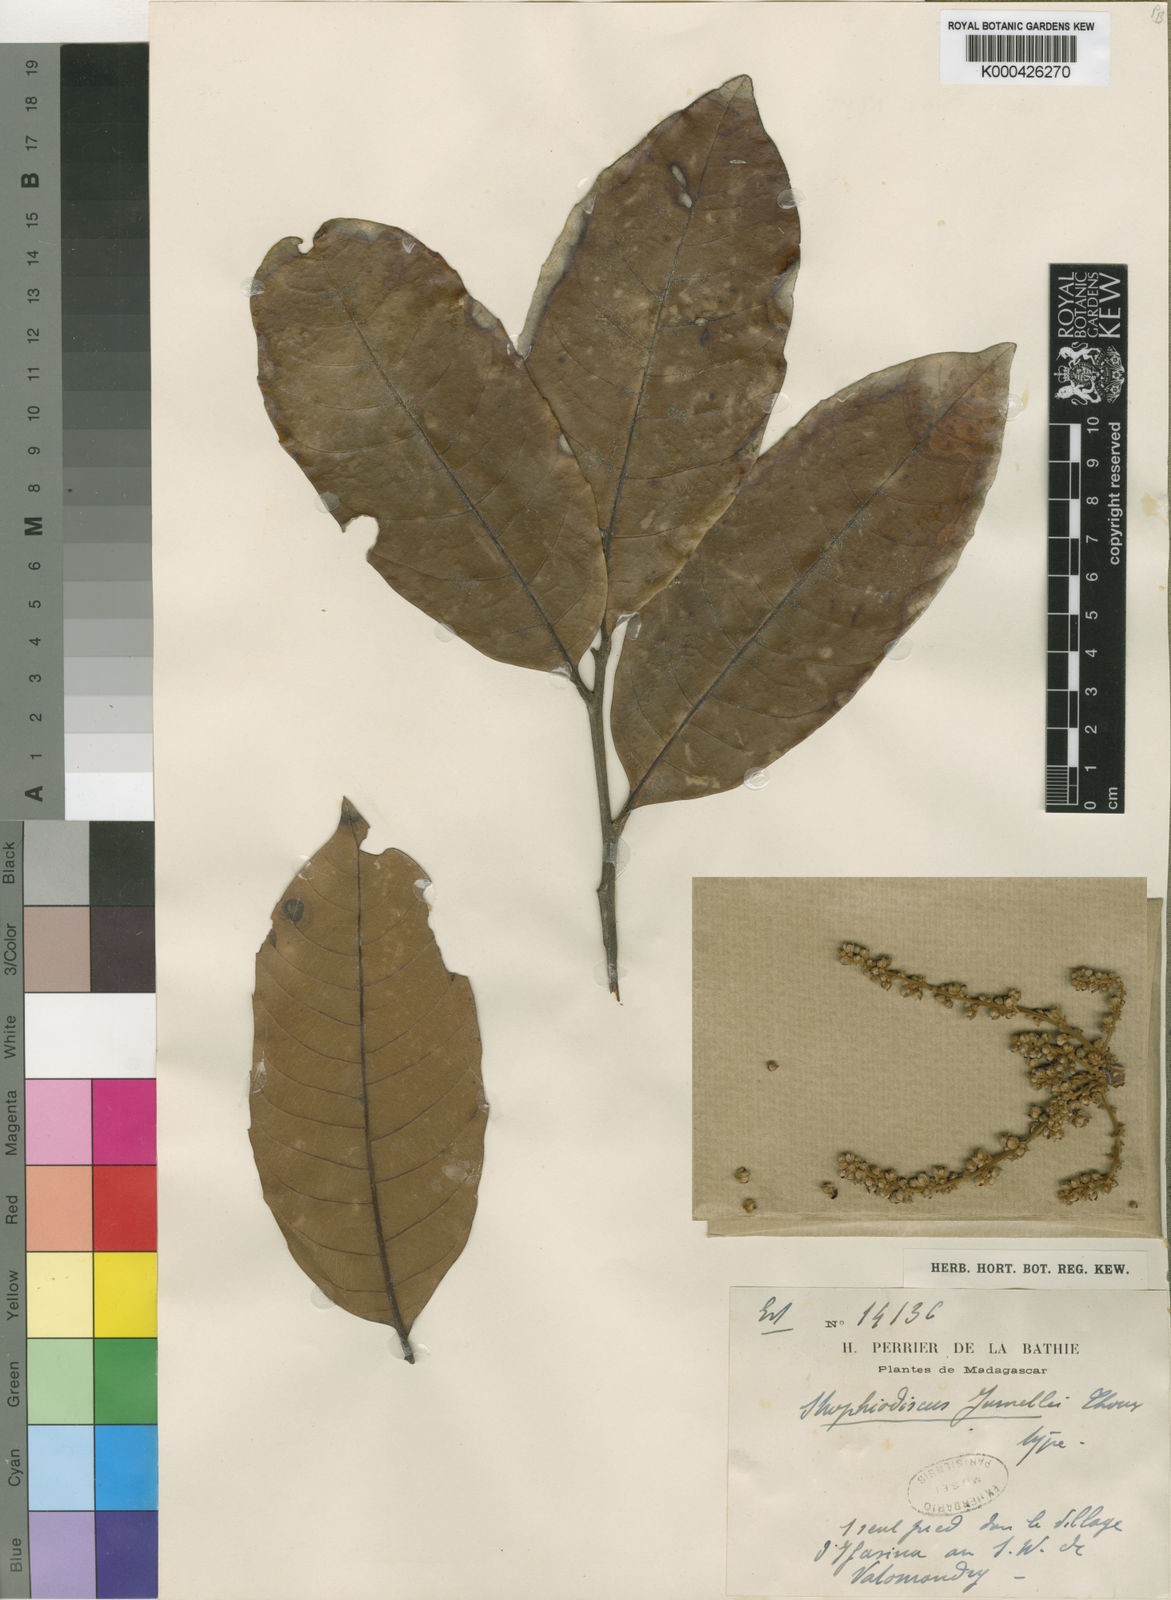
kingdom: Plantae
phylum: Tracheophyta
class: Magnoliopsida
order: Sapindales
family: Sapindaceae
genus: Plagioscyphus
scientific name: Plagioscyphus jumellei
